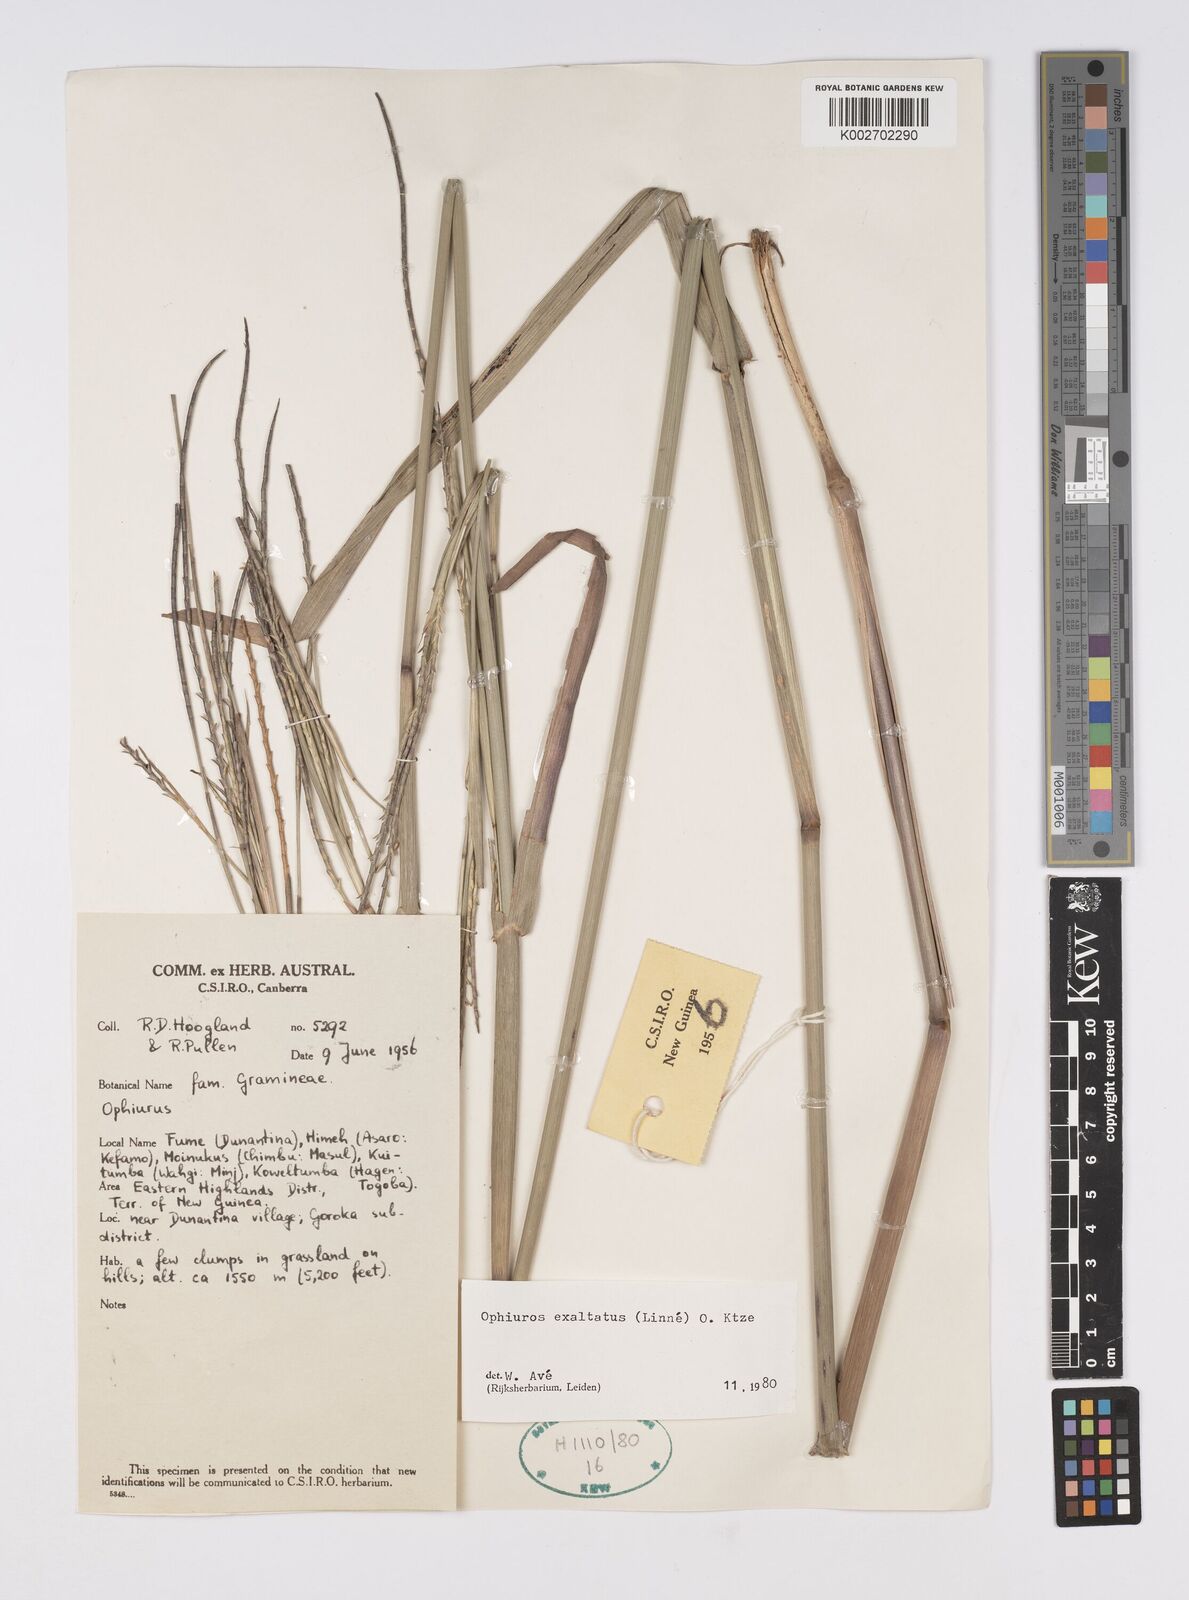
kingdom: Plantae
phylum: Tracheophyta
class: Liliopsida
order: Poales
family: Poaceae
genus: Ophiuros
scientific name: Ophiuros megaphyllus
